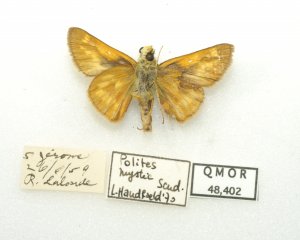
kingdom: Animalia
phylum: Arthropoda
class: Insecta
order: Lepidoptera
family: Hesperiidae
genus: Polites
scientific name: Polites
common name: Long Dash Skipper
